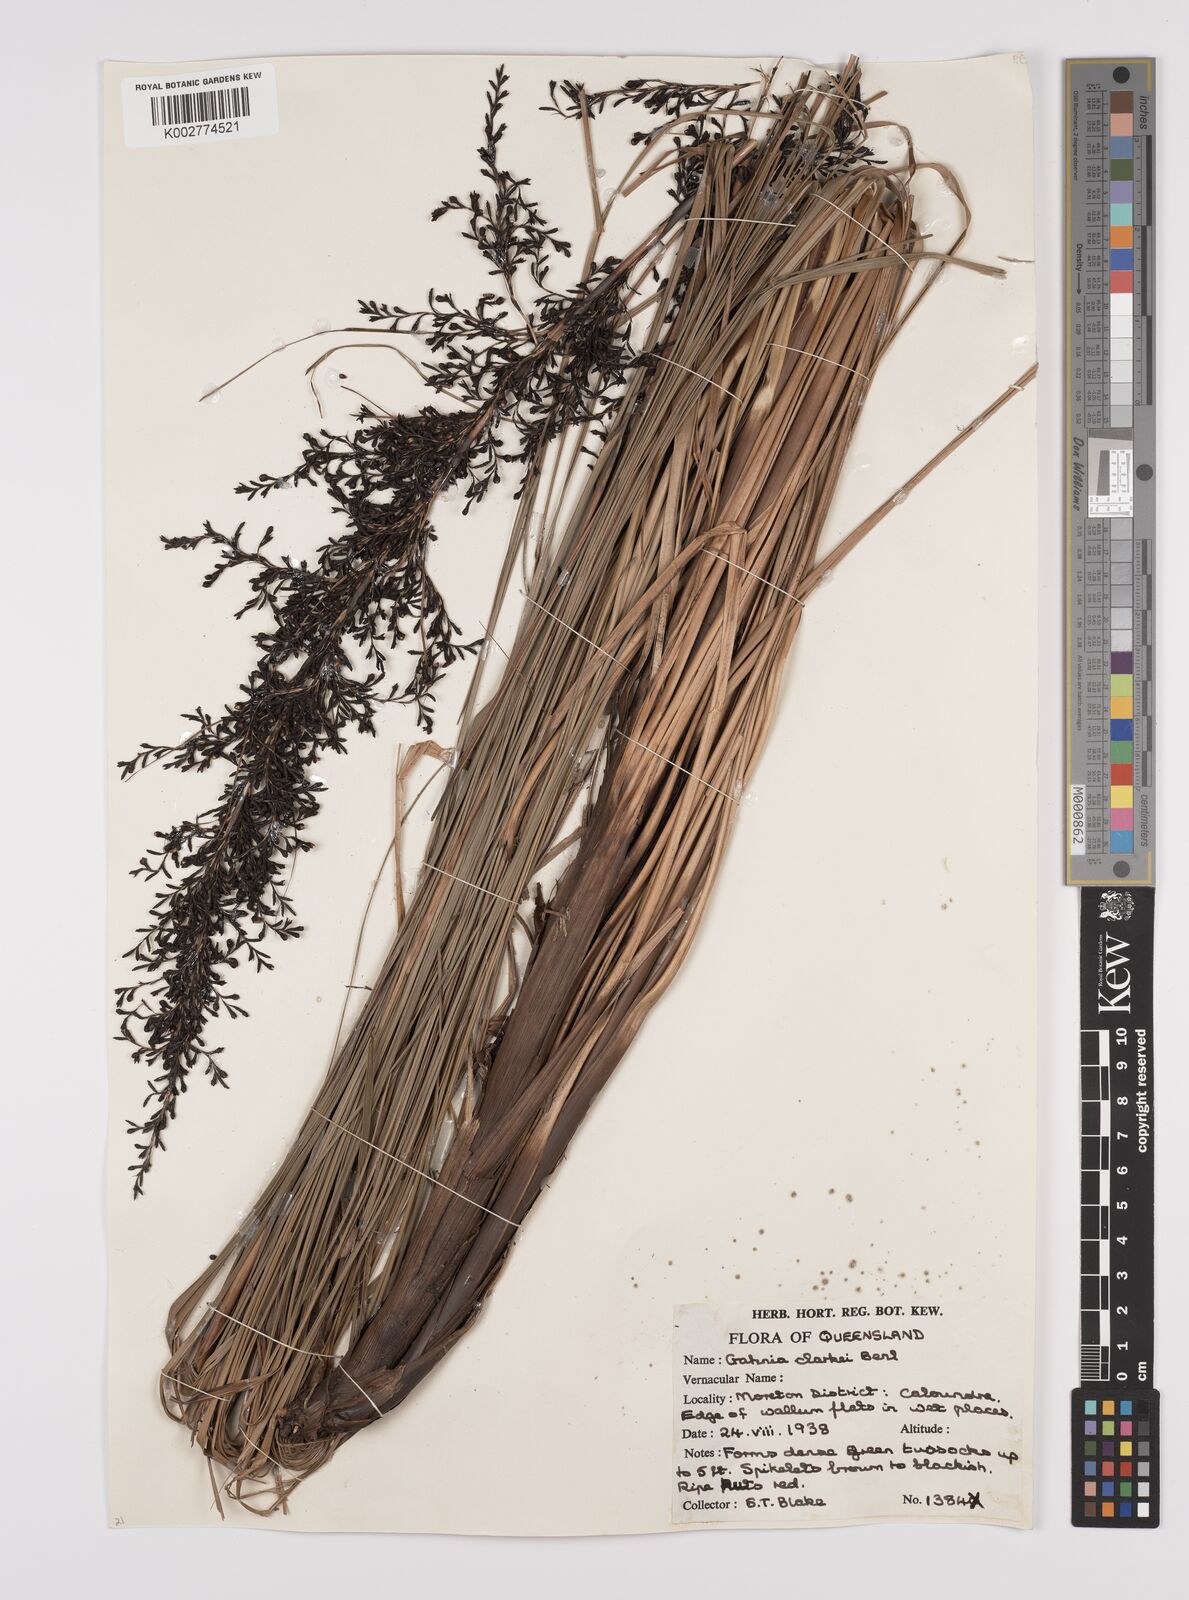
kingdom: Plantae
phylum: Tracheophyta
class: Liliopsida
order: Poales
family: Cyperaceae
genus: Gahnia
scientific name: Gahnia clarkei
